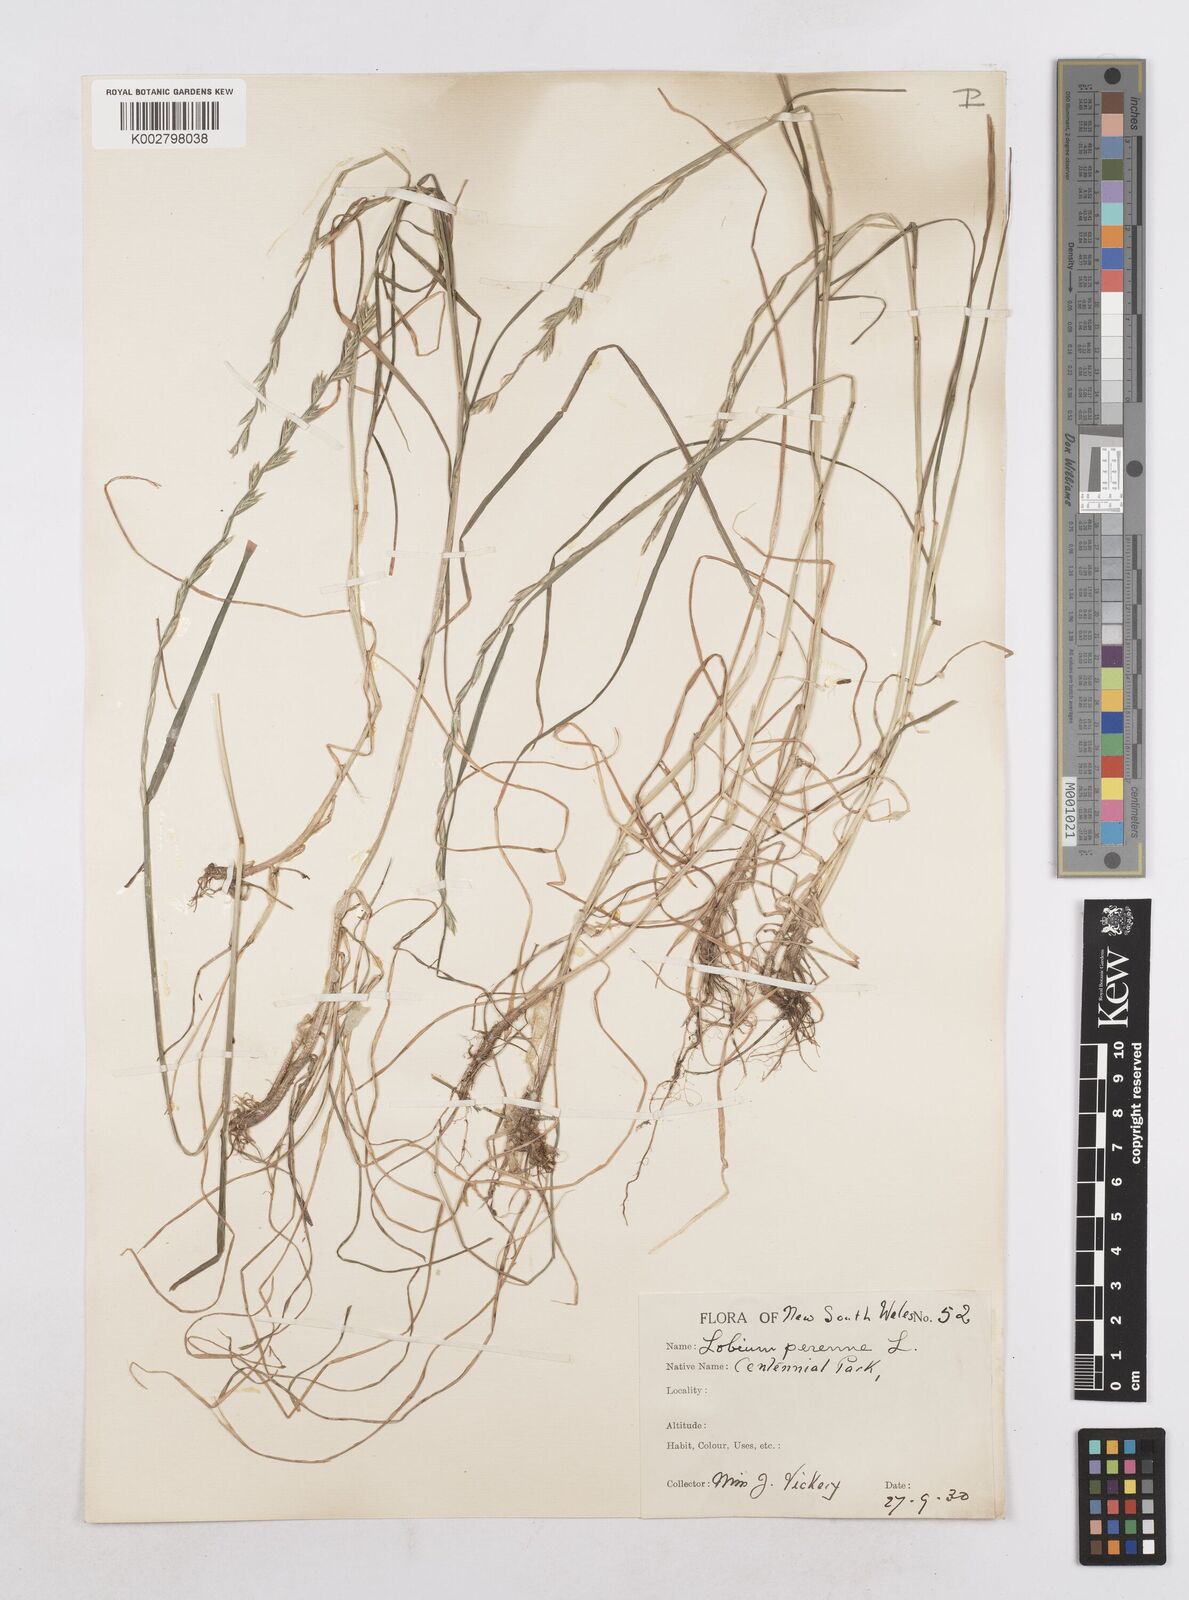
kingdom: Plantae
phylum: Tracheophyta
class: Liliopsida
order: Poales
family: Poaceae
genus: Lolium
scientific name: Lolium perenne
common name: Perennial ryegrass
